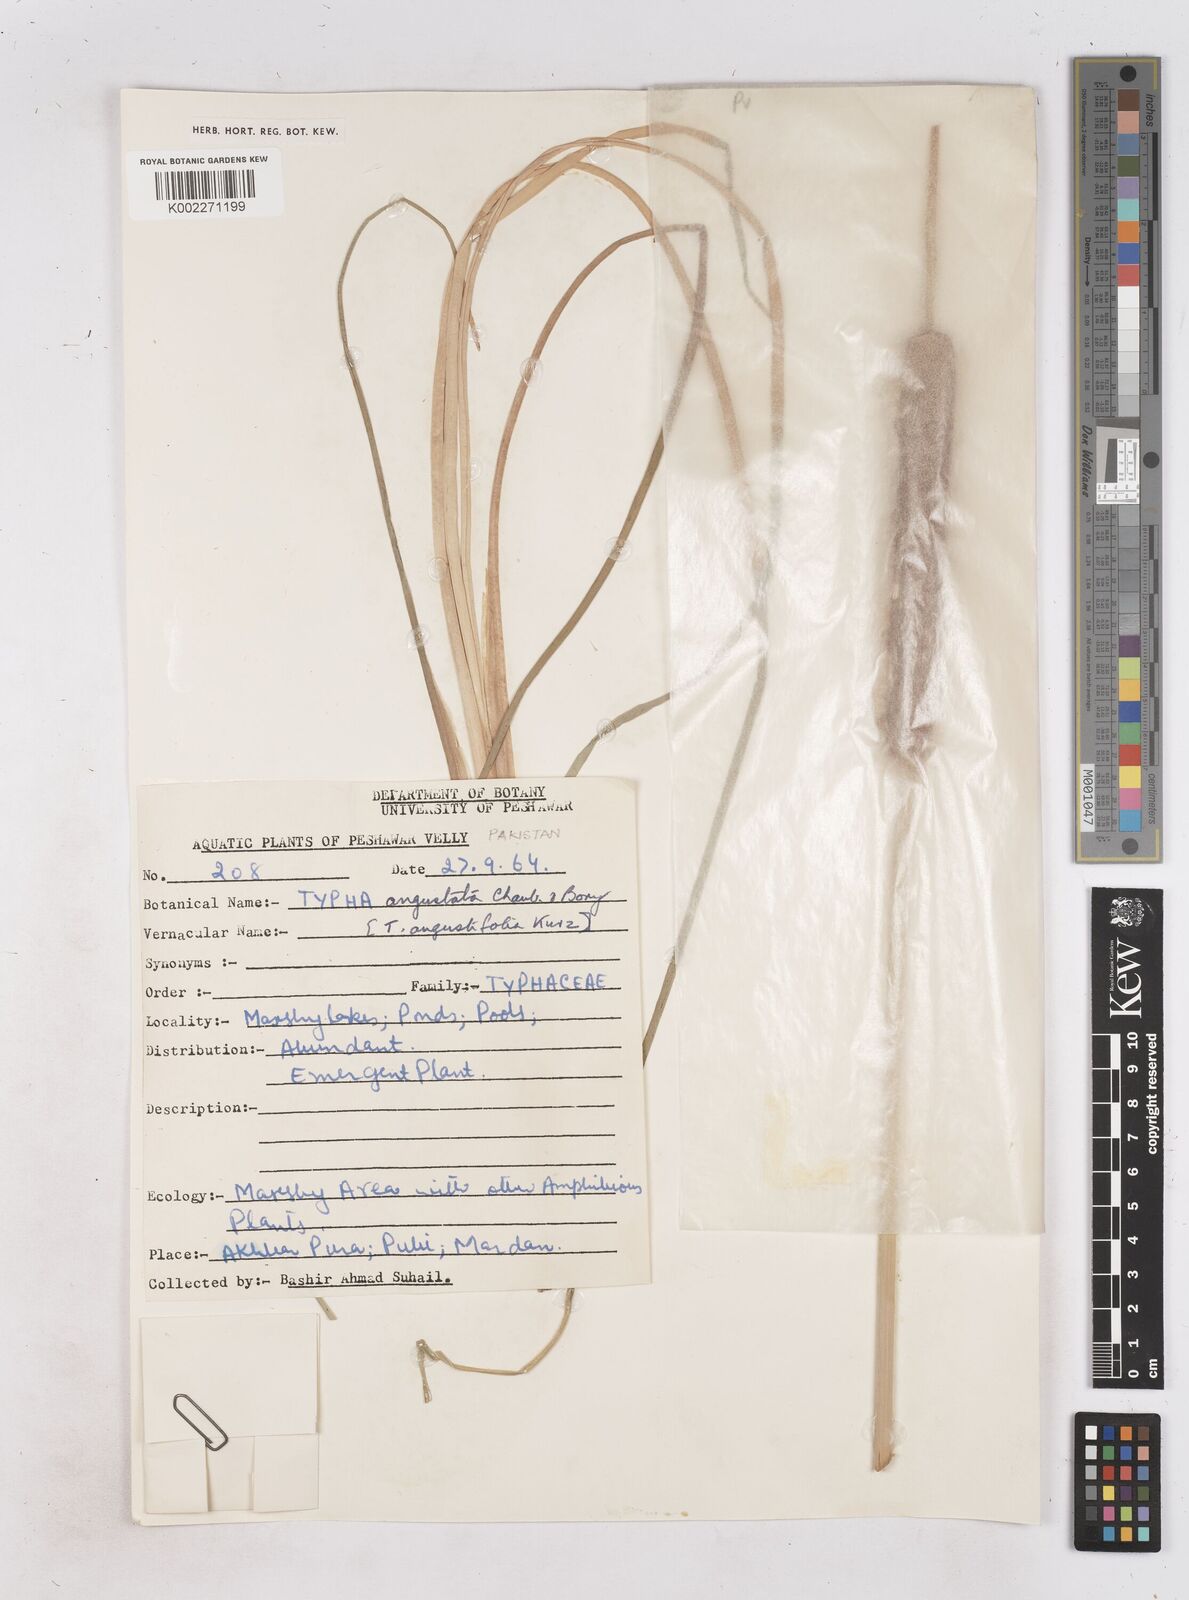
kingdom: Plantae
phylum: Tracheophyta
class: Liliopsida
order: Poales
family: Typhaceae
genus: Typha
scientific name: Typha domingensis
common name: Southern cattail
